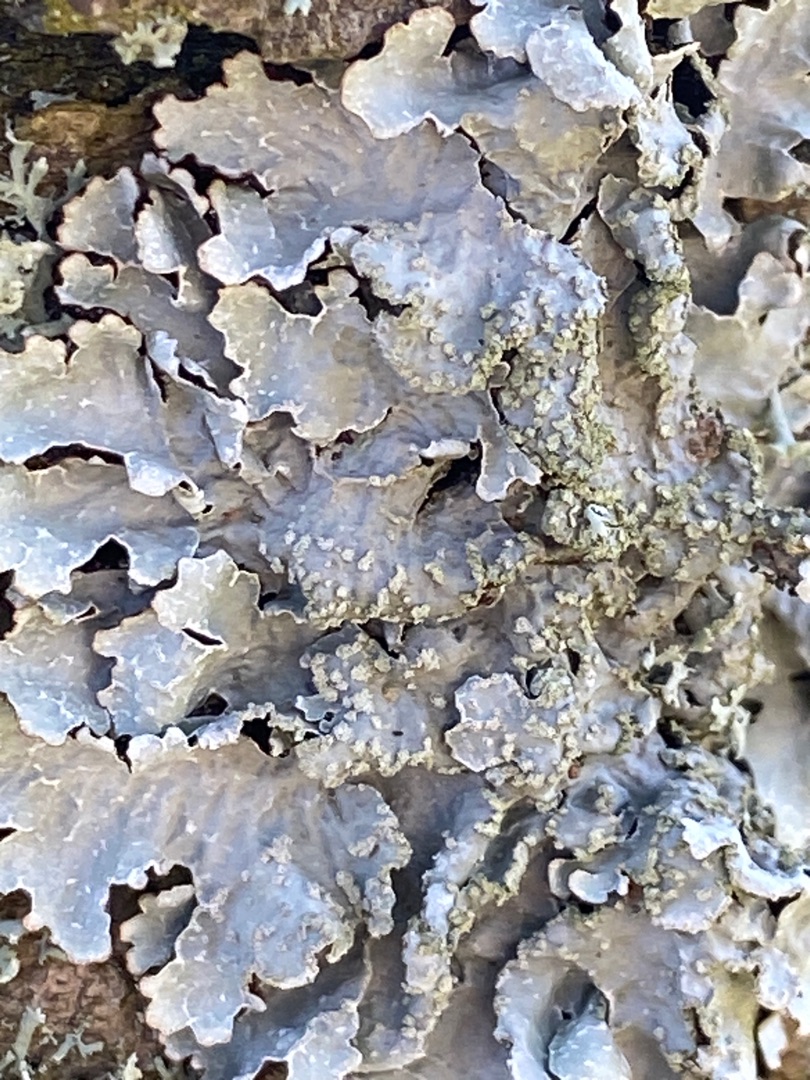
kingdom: Fungi
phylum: Ascomycota
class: Lecanoromycetes
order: Lecanorales
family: Parmeliaceae
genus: Parmelia
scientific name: Parmelia sulcata
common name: Rynket skållav
